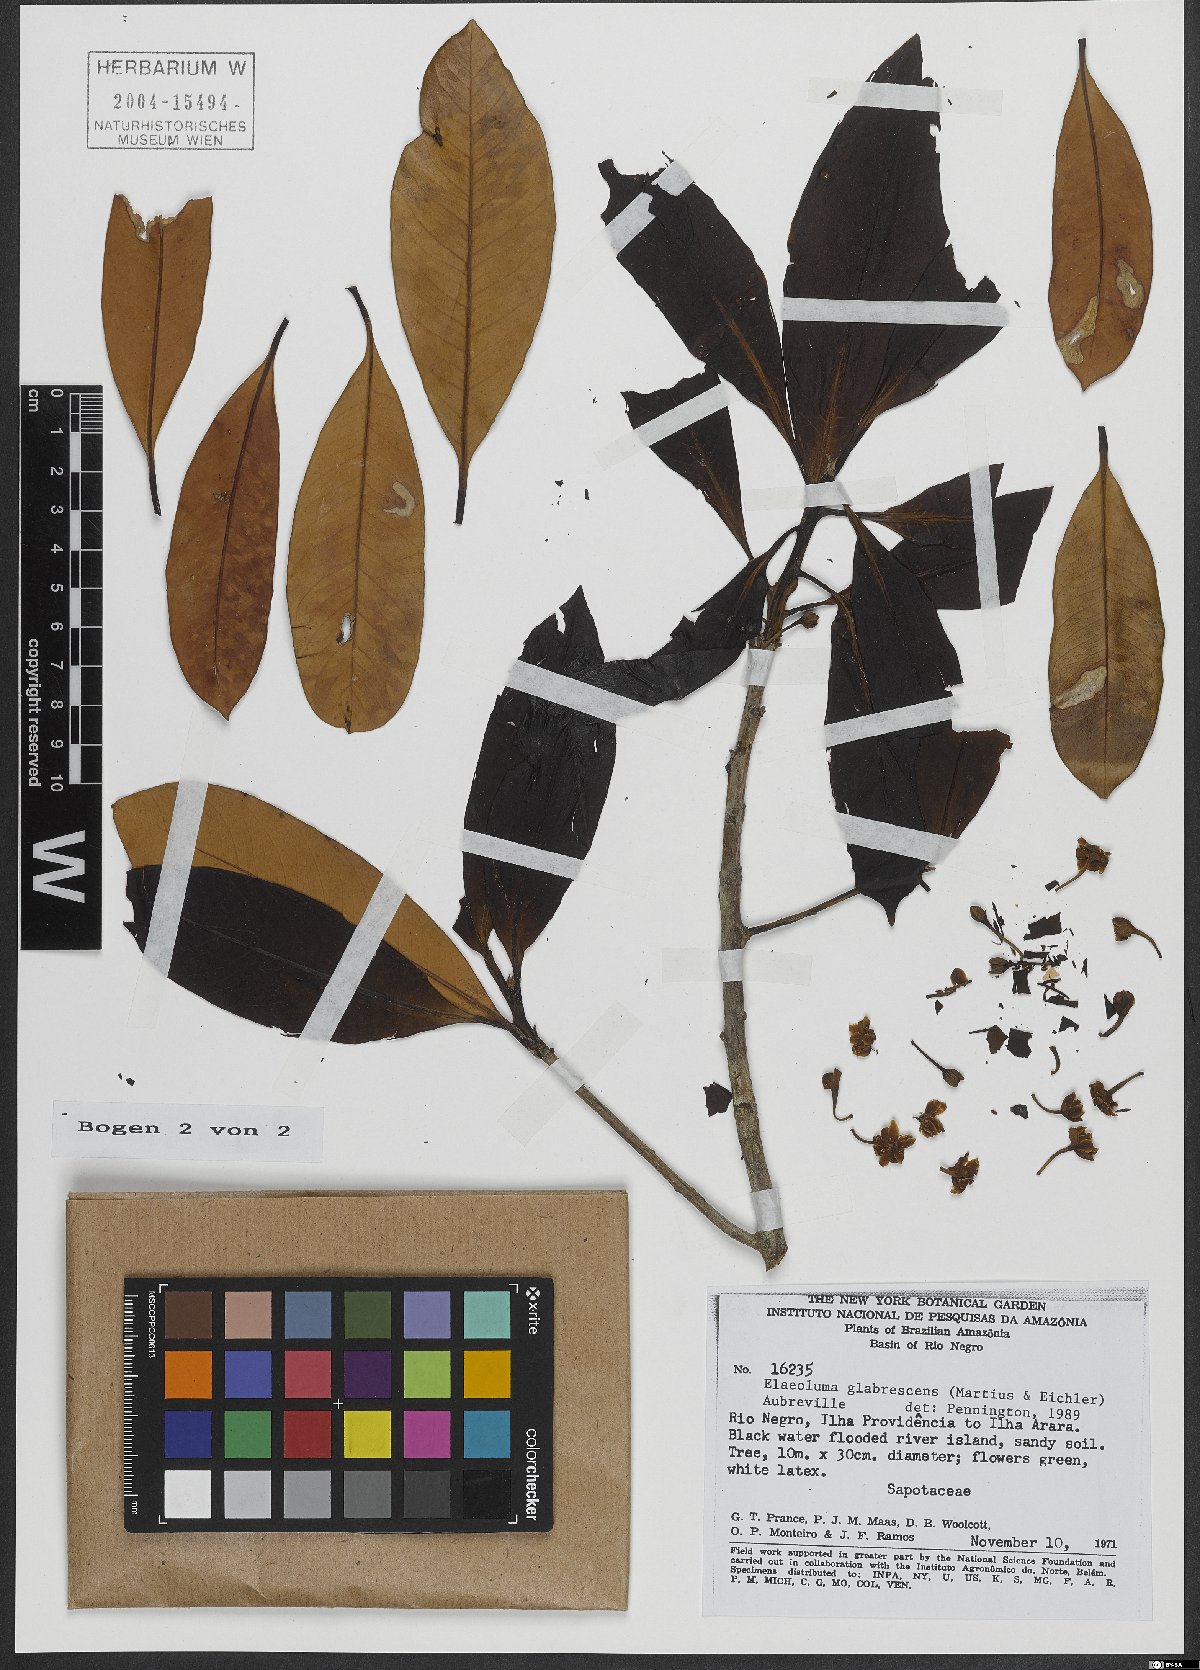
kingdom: Plantae
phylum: Tracheophyta
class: Magnoliopsida
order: Ericales
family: Sapotaceae
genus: Elaeoluma
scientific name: Elaeoluma glabrescens
